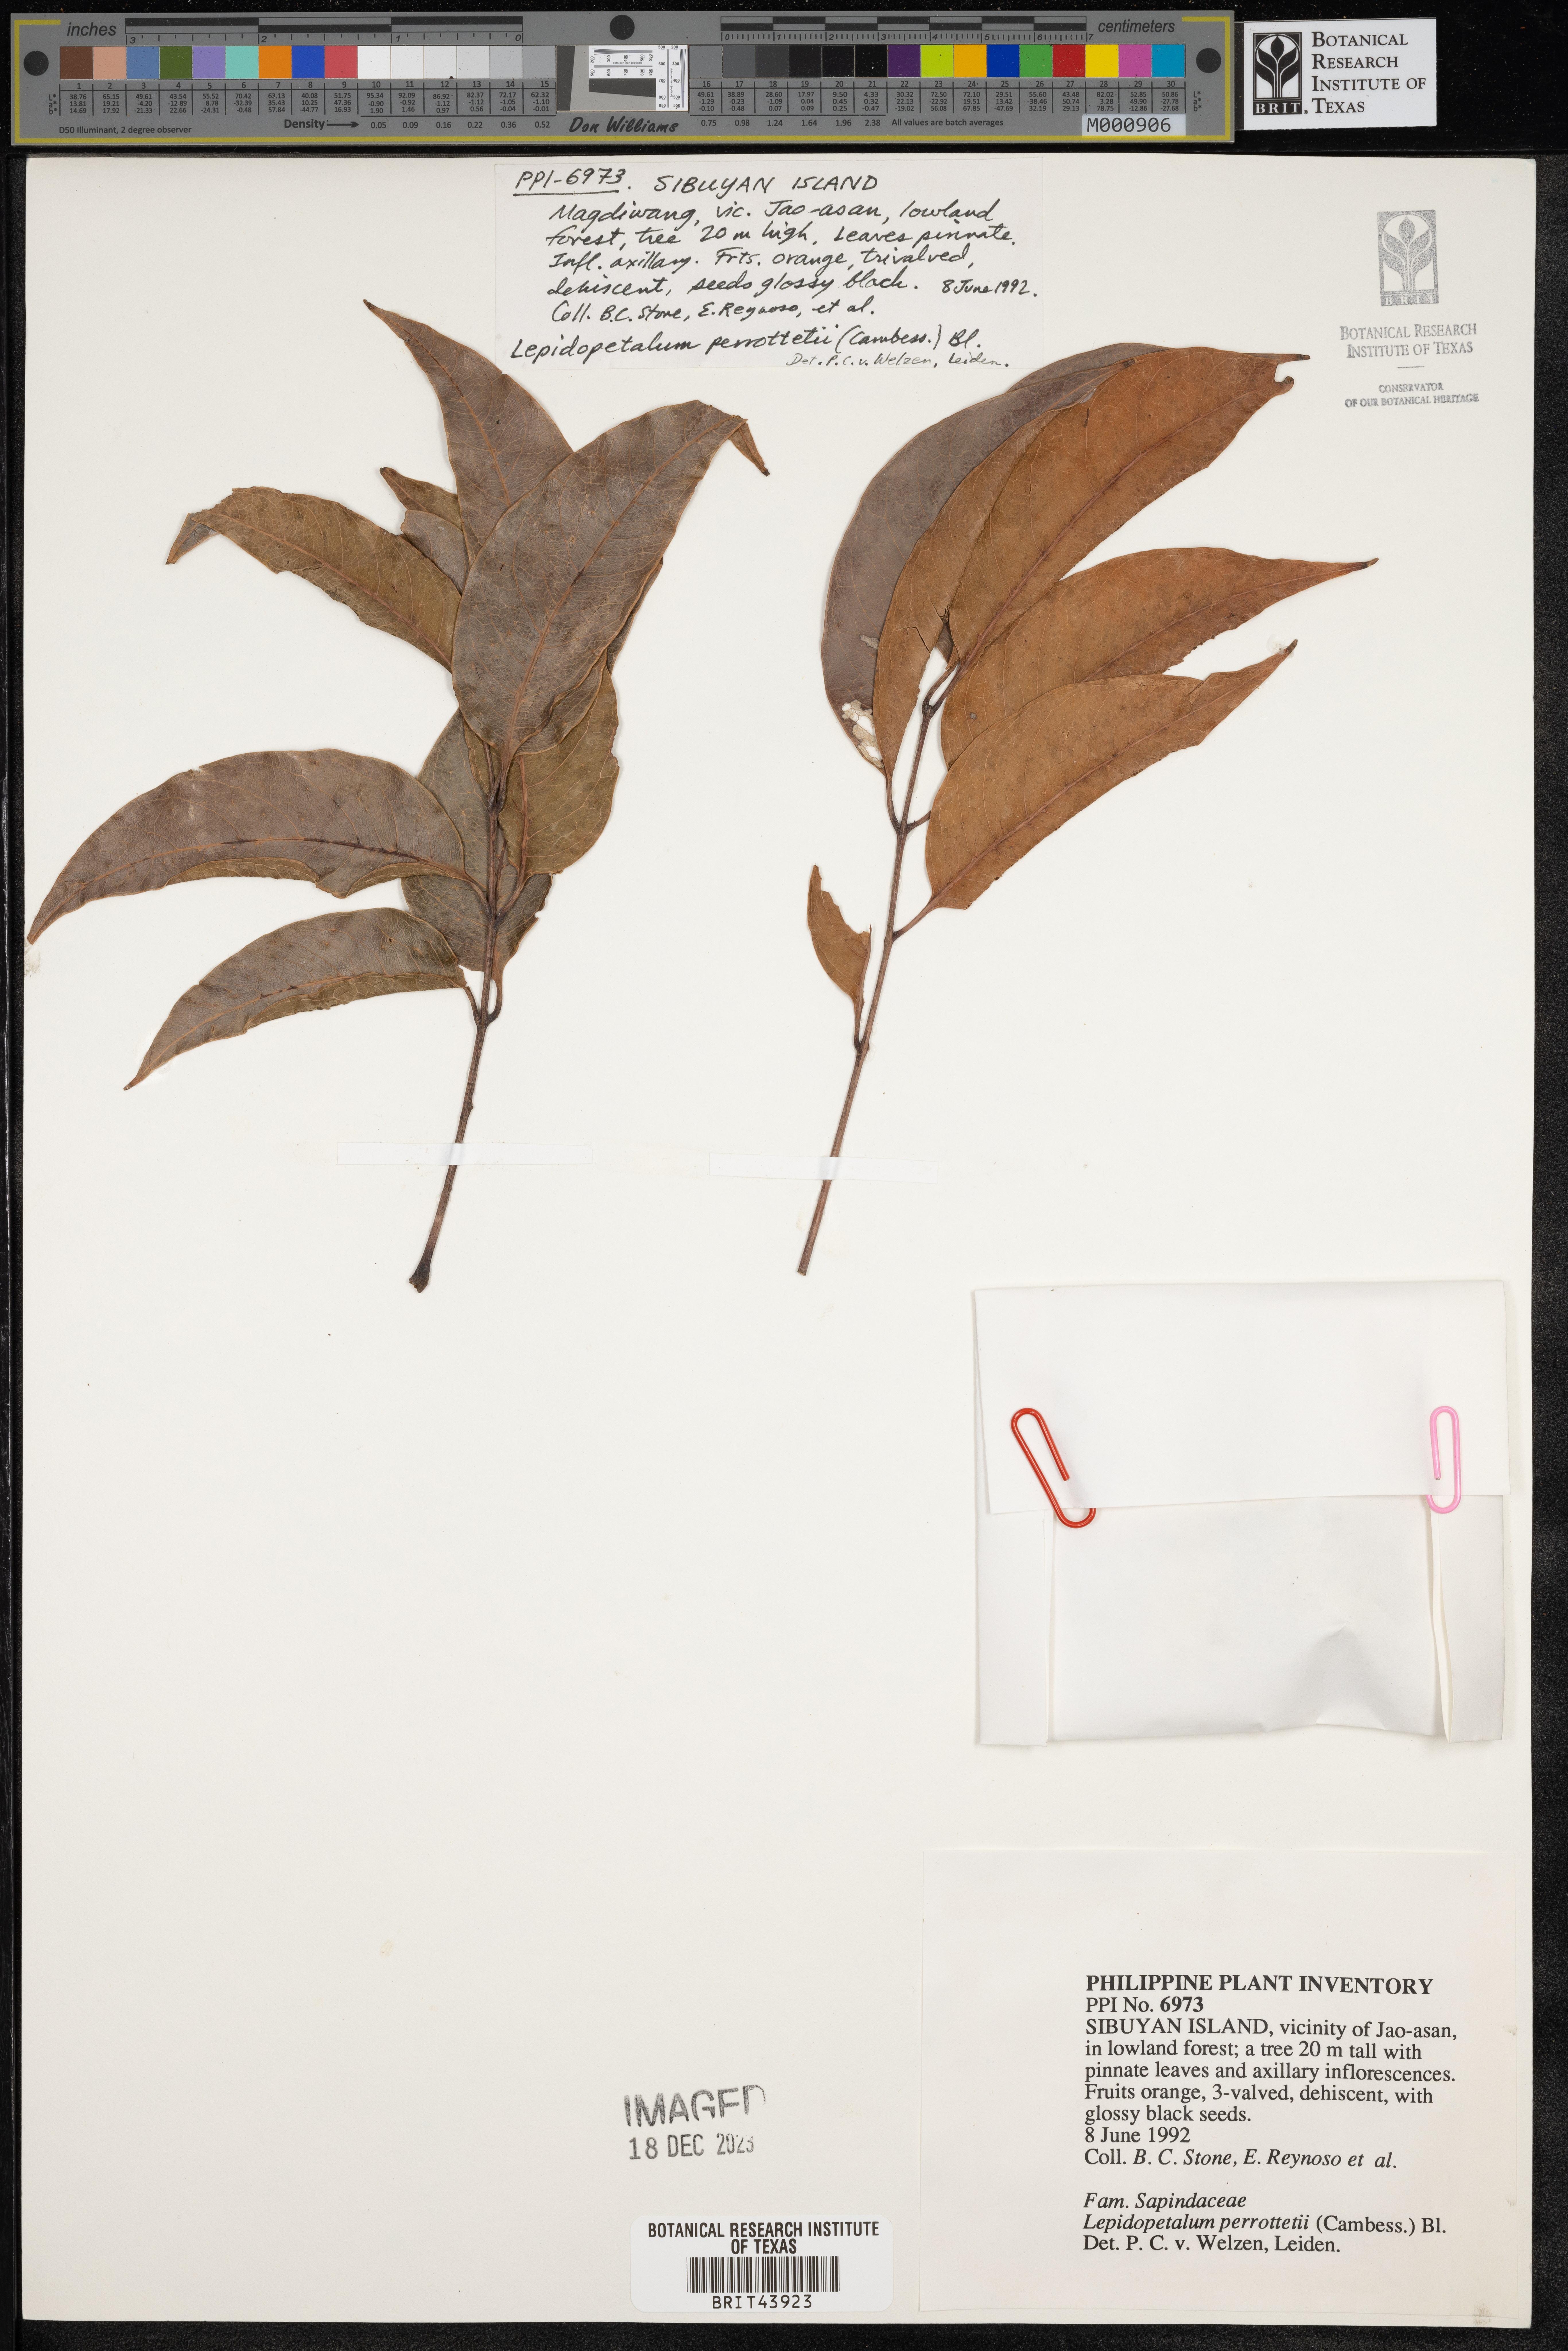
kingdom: Plantae
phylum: Tracheophyta
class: Magnoliopsida
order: Sapindales
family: Sapindaceae
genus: Lepidopetalum
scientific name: Lepidopetalum perrottetii
